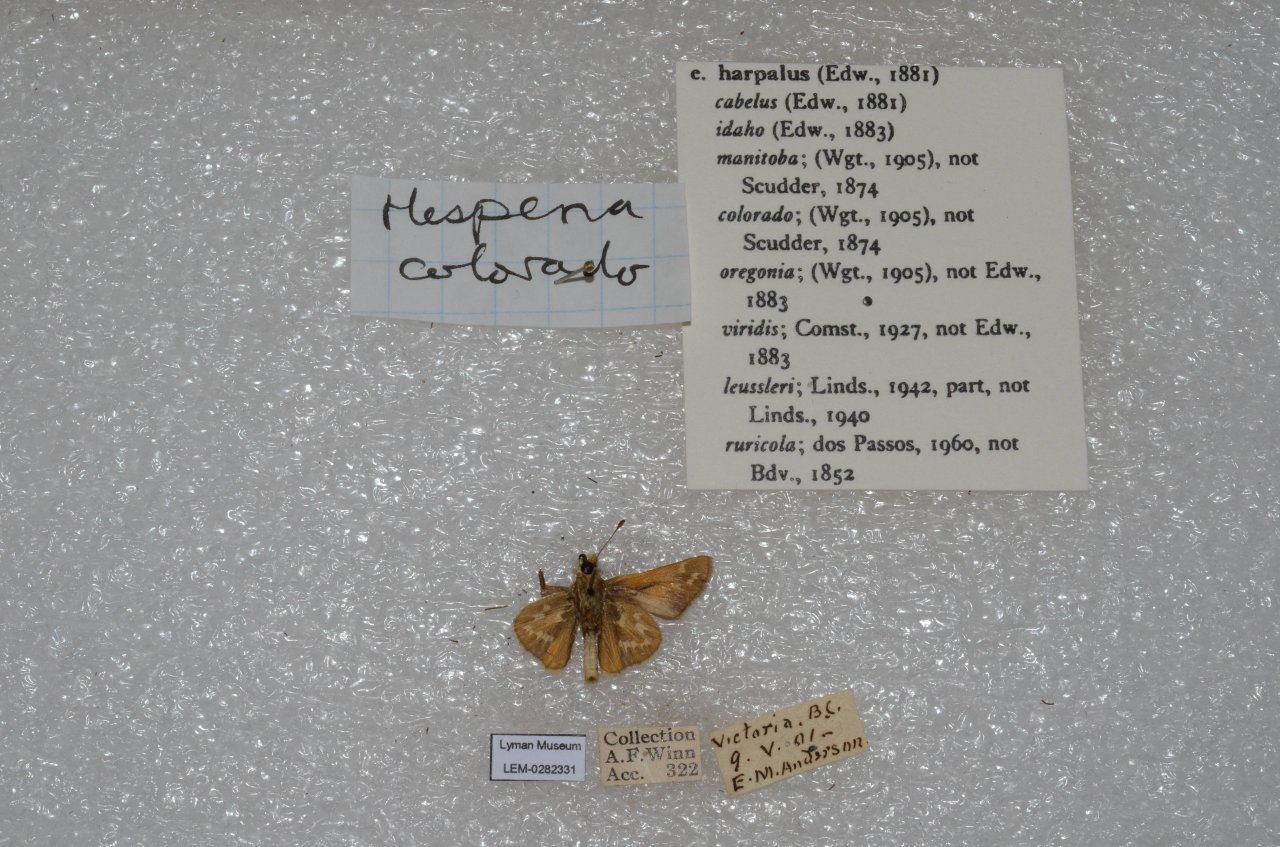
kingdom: Animalia
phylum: Arthropoda
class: Insecta
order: Lepidoptera
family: Hesperiidae
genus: Hesperia
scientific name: Hesperia comma
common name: Western Branded Skipper
